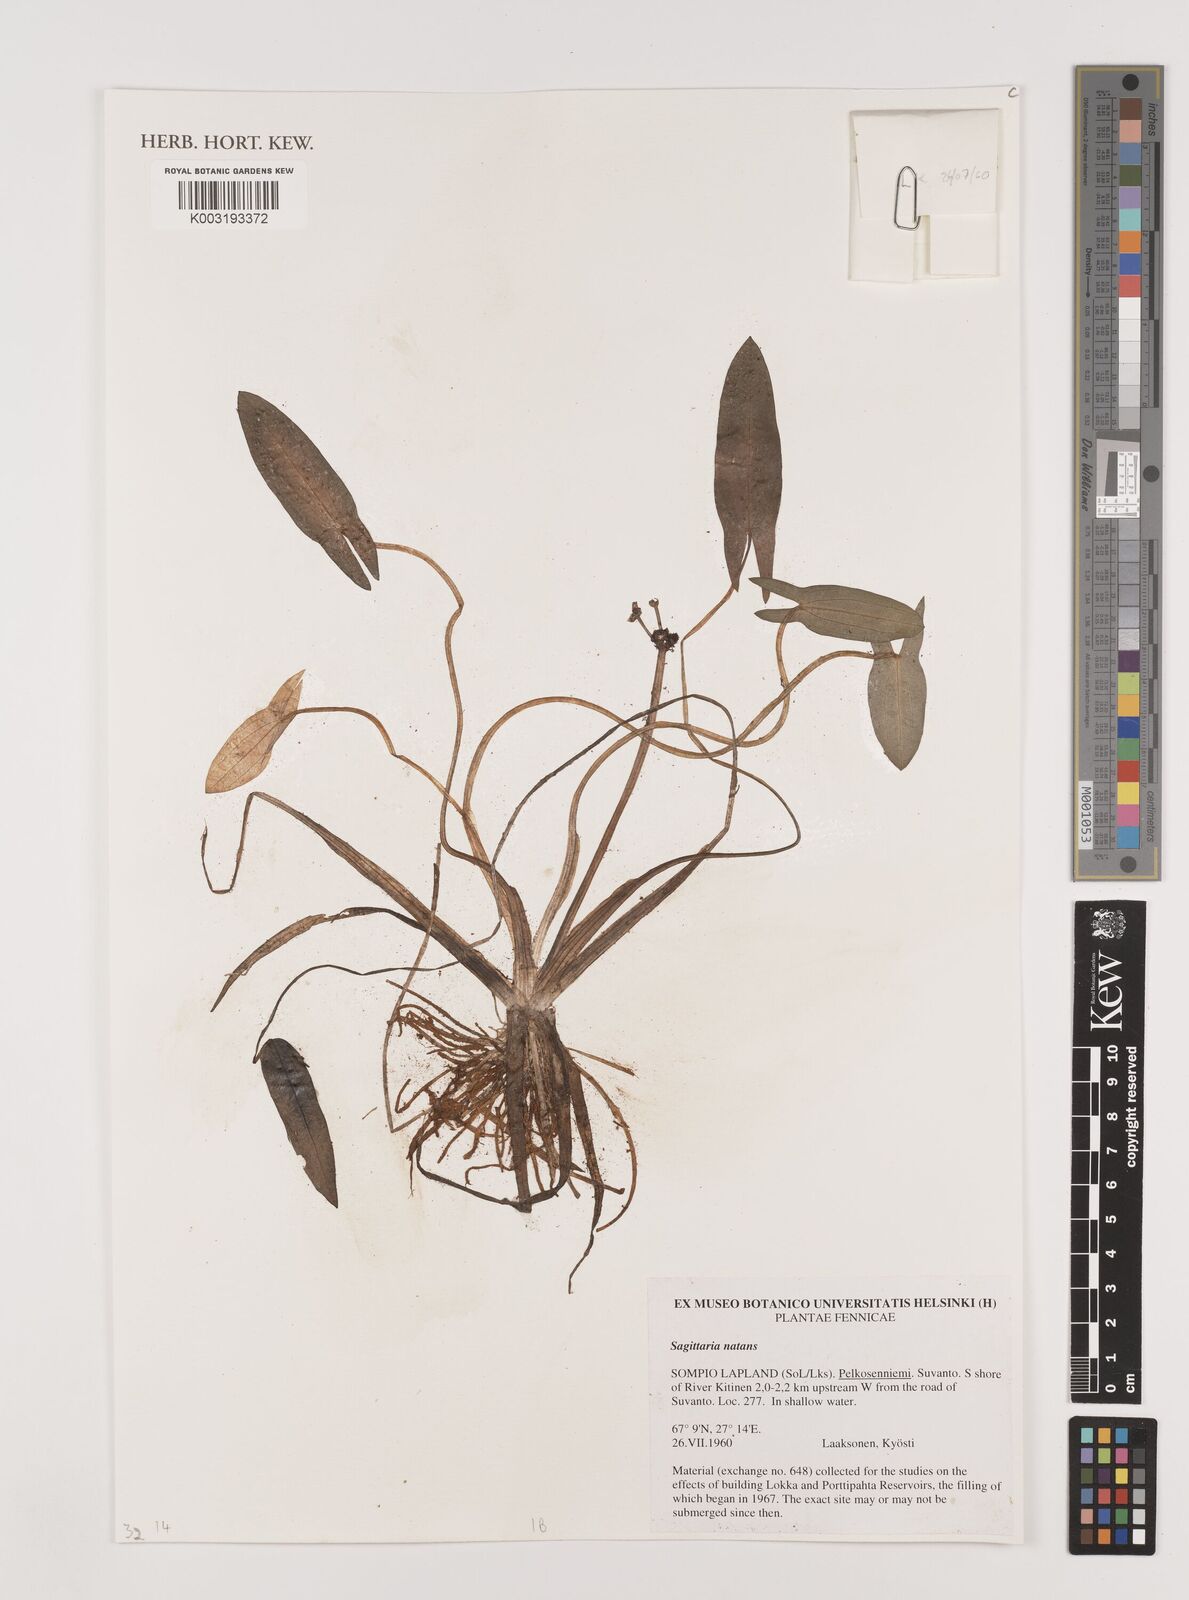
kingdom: Plantae
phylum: Tracheophyta
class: Liliopsida
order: Alismatales
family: Alismataceae
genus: Sagittaria
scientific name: Sagittaria natans
